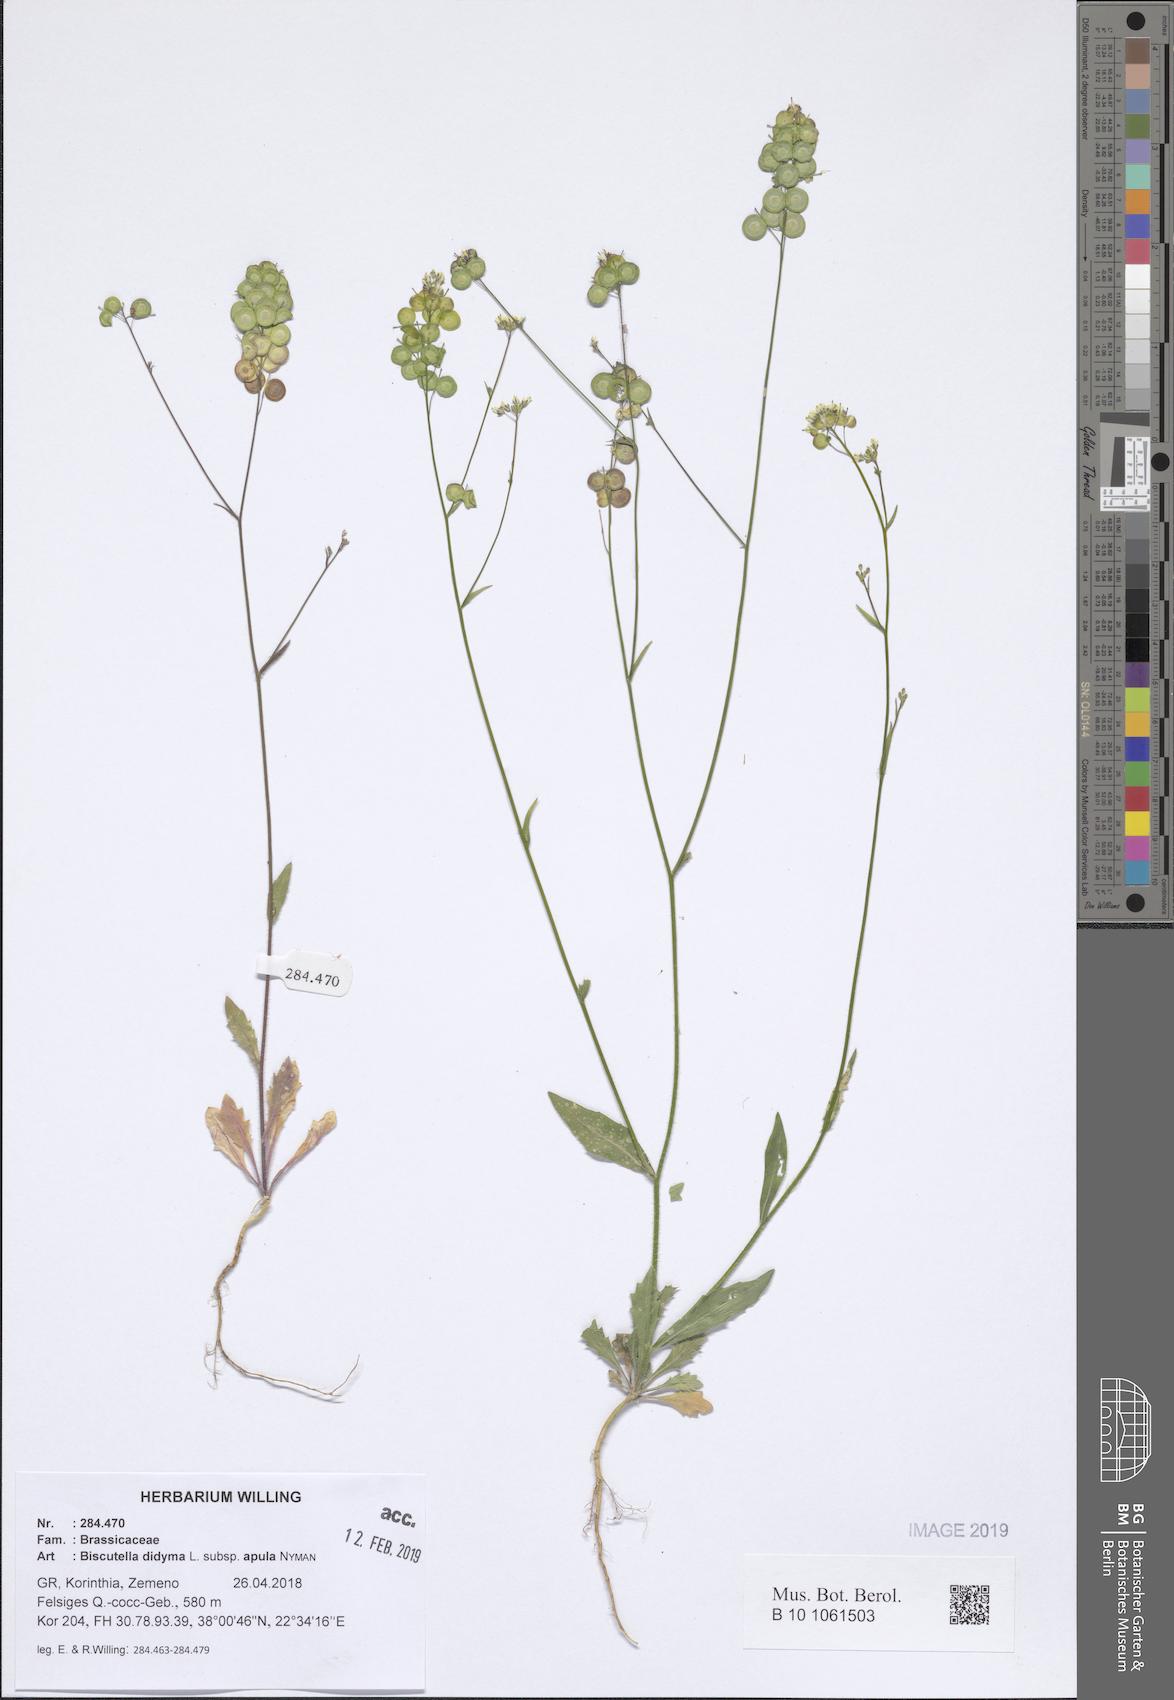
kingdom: Plantae
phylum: Tracheophyta
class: Magnoliopsida
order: Brassicales
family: Brassicaceae
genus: Biscutella
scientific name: Biscutella didyma
